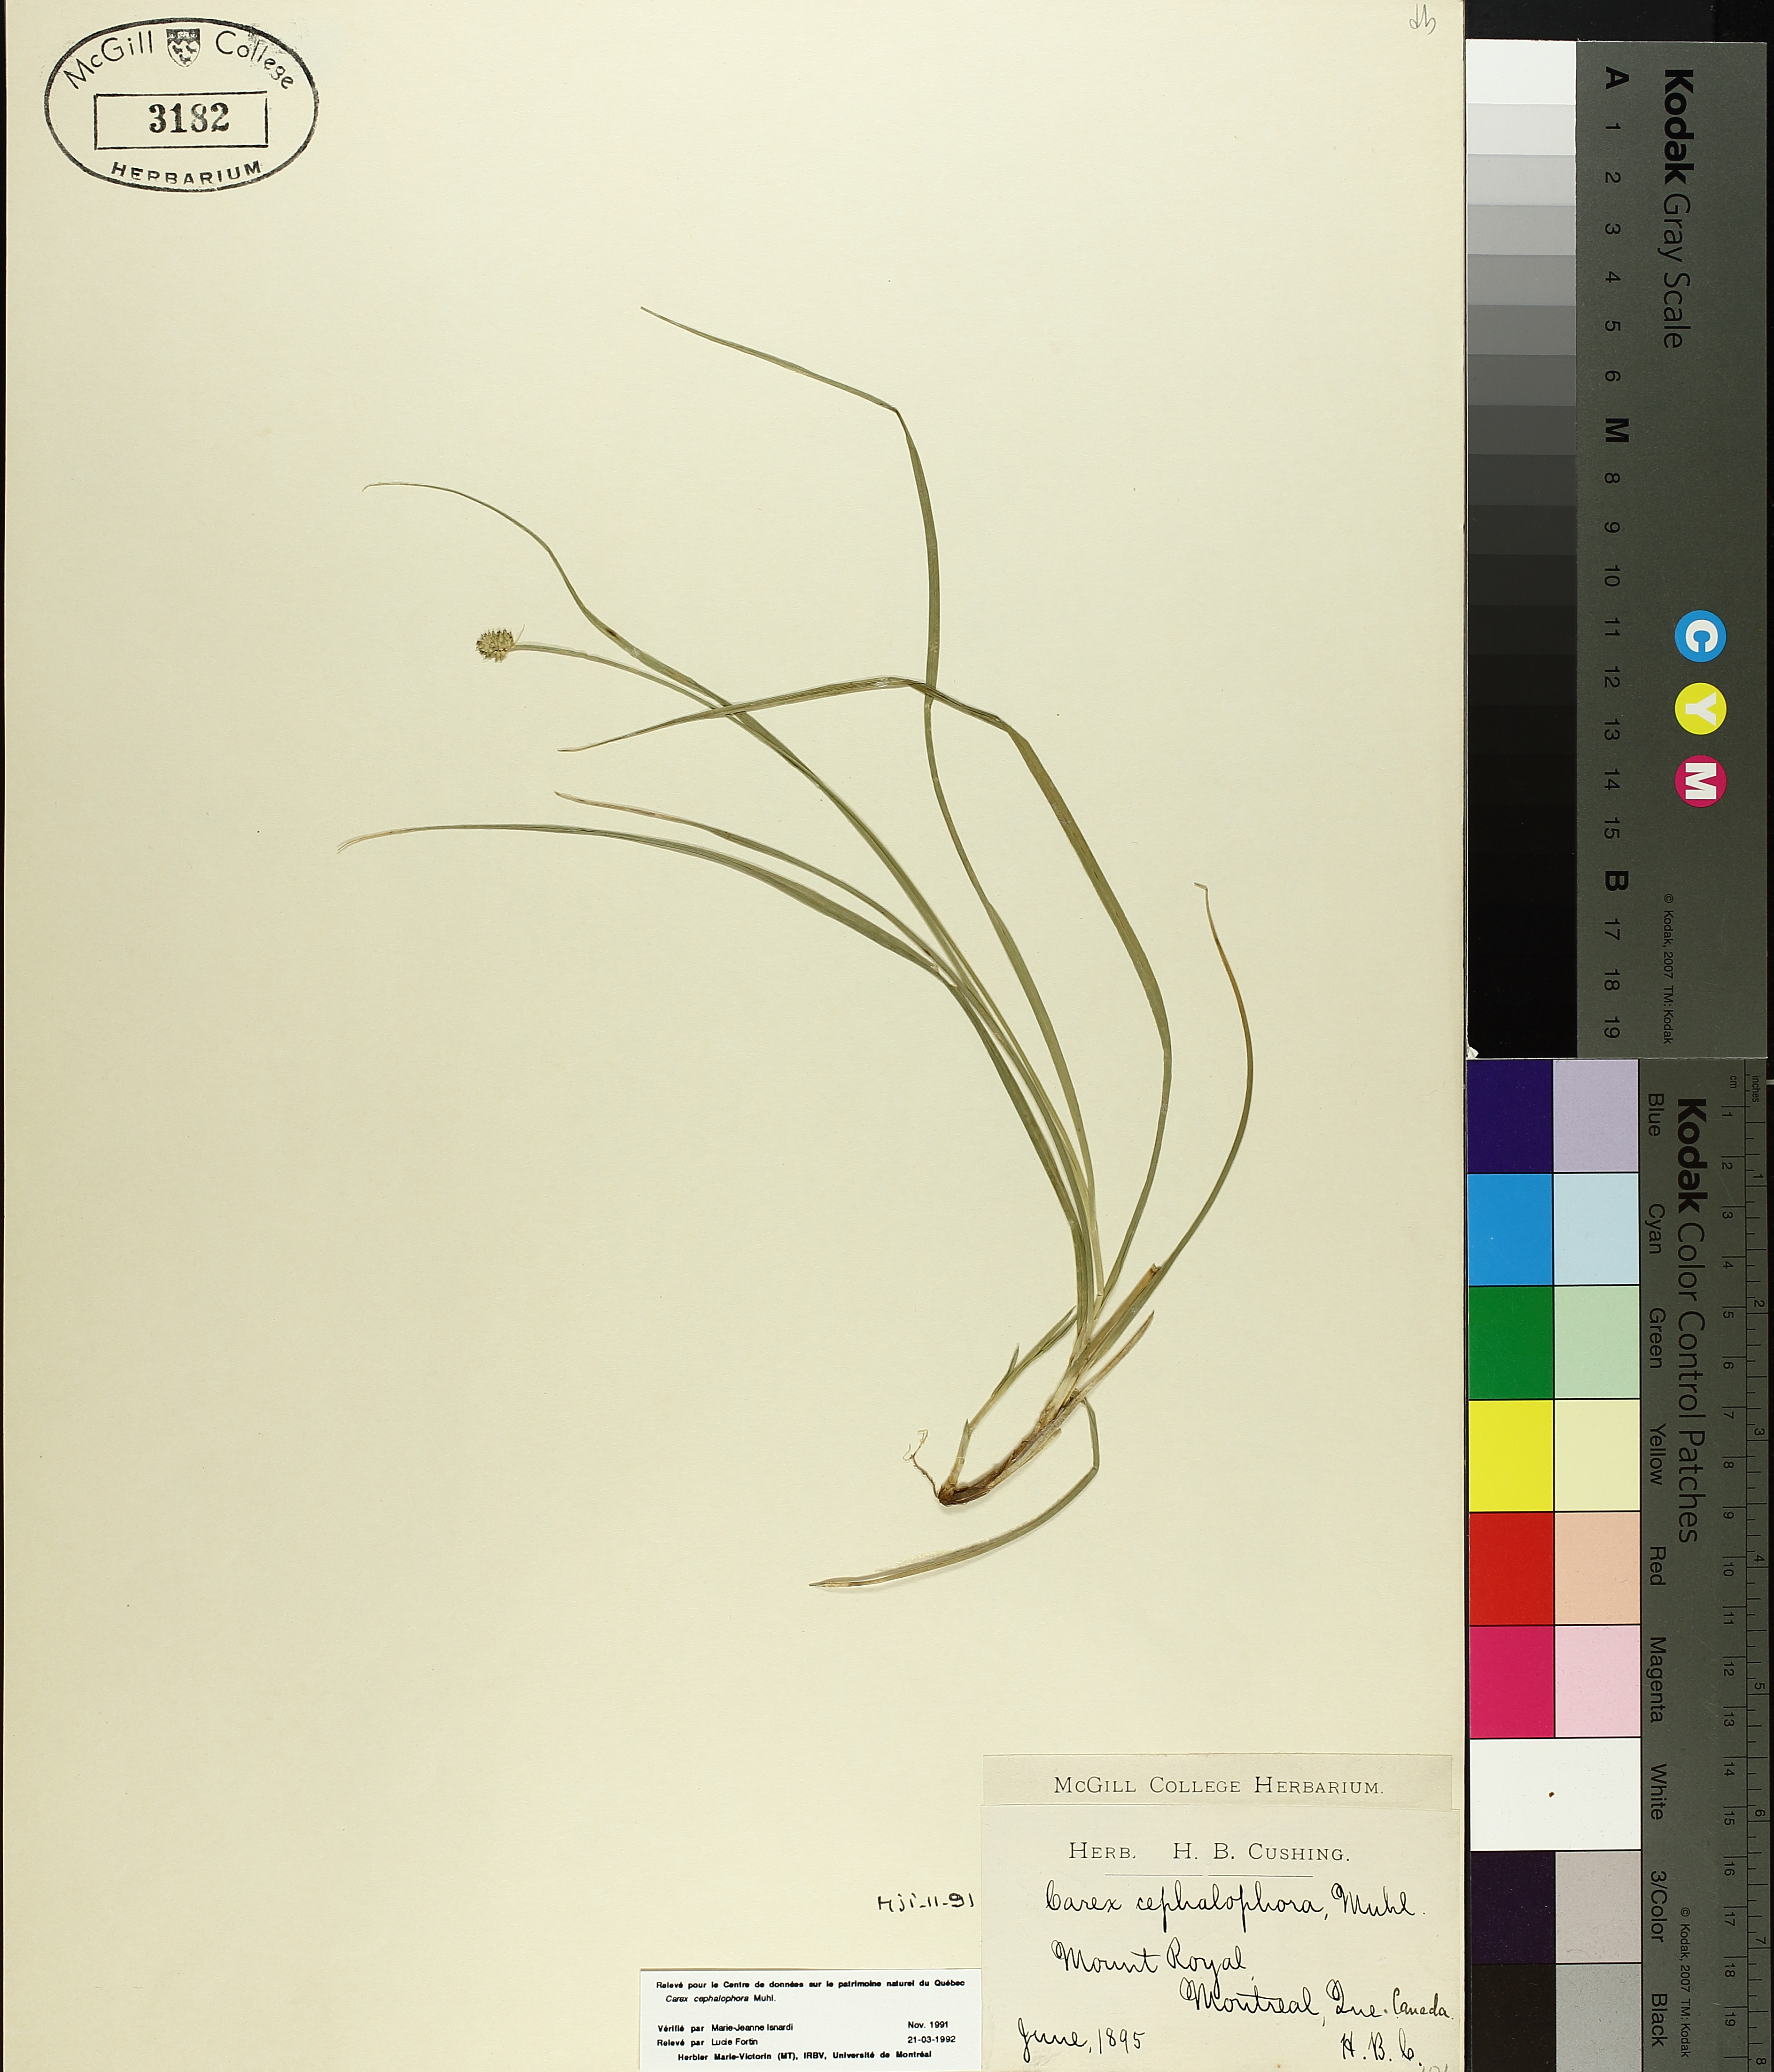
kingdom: Plantae
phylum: Tracheophyta
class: Liliopsida
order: Poales
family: Cyperaceae
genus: Carex
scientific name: Carex cephalophora
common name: Oval-headed sedge
